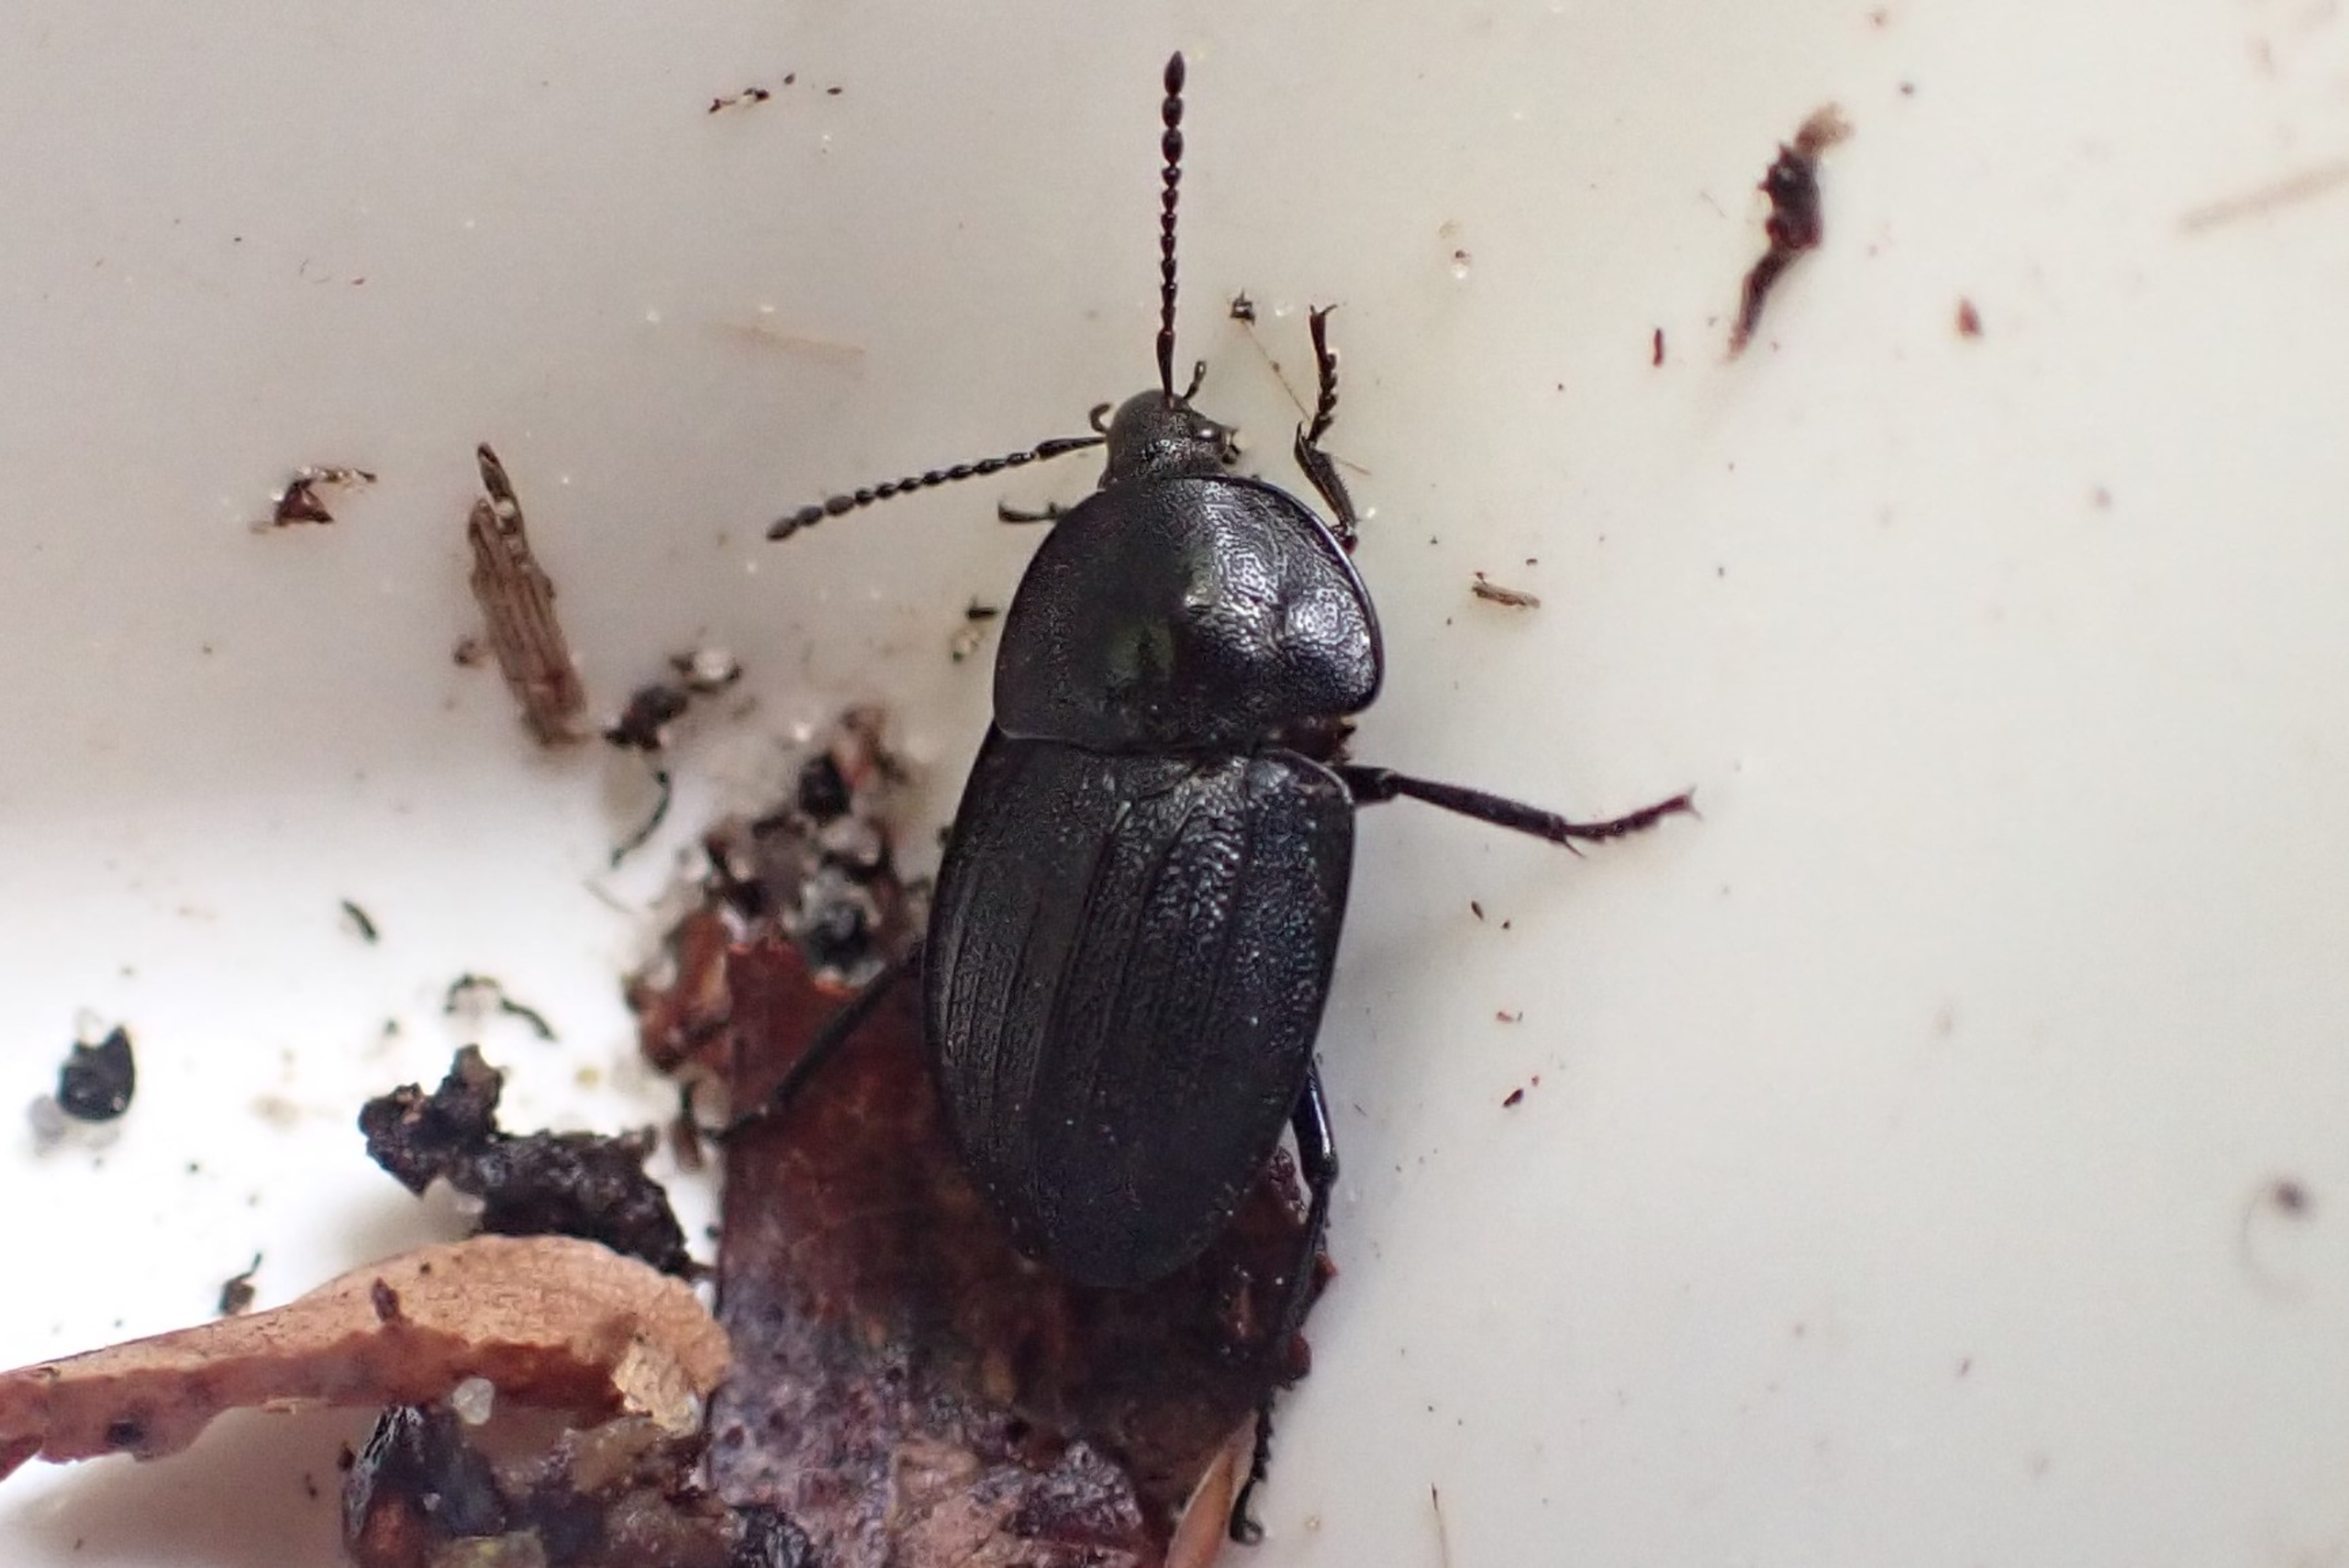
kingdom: Animalia
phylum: Arthropoda
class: Insecta
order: Coleoptera
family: Staphylinidae
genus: Silpha
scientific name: Silpha atrata
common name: Snegleådselbille
